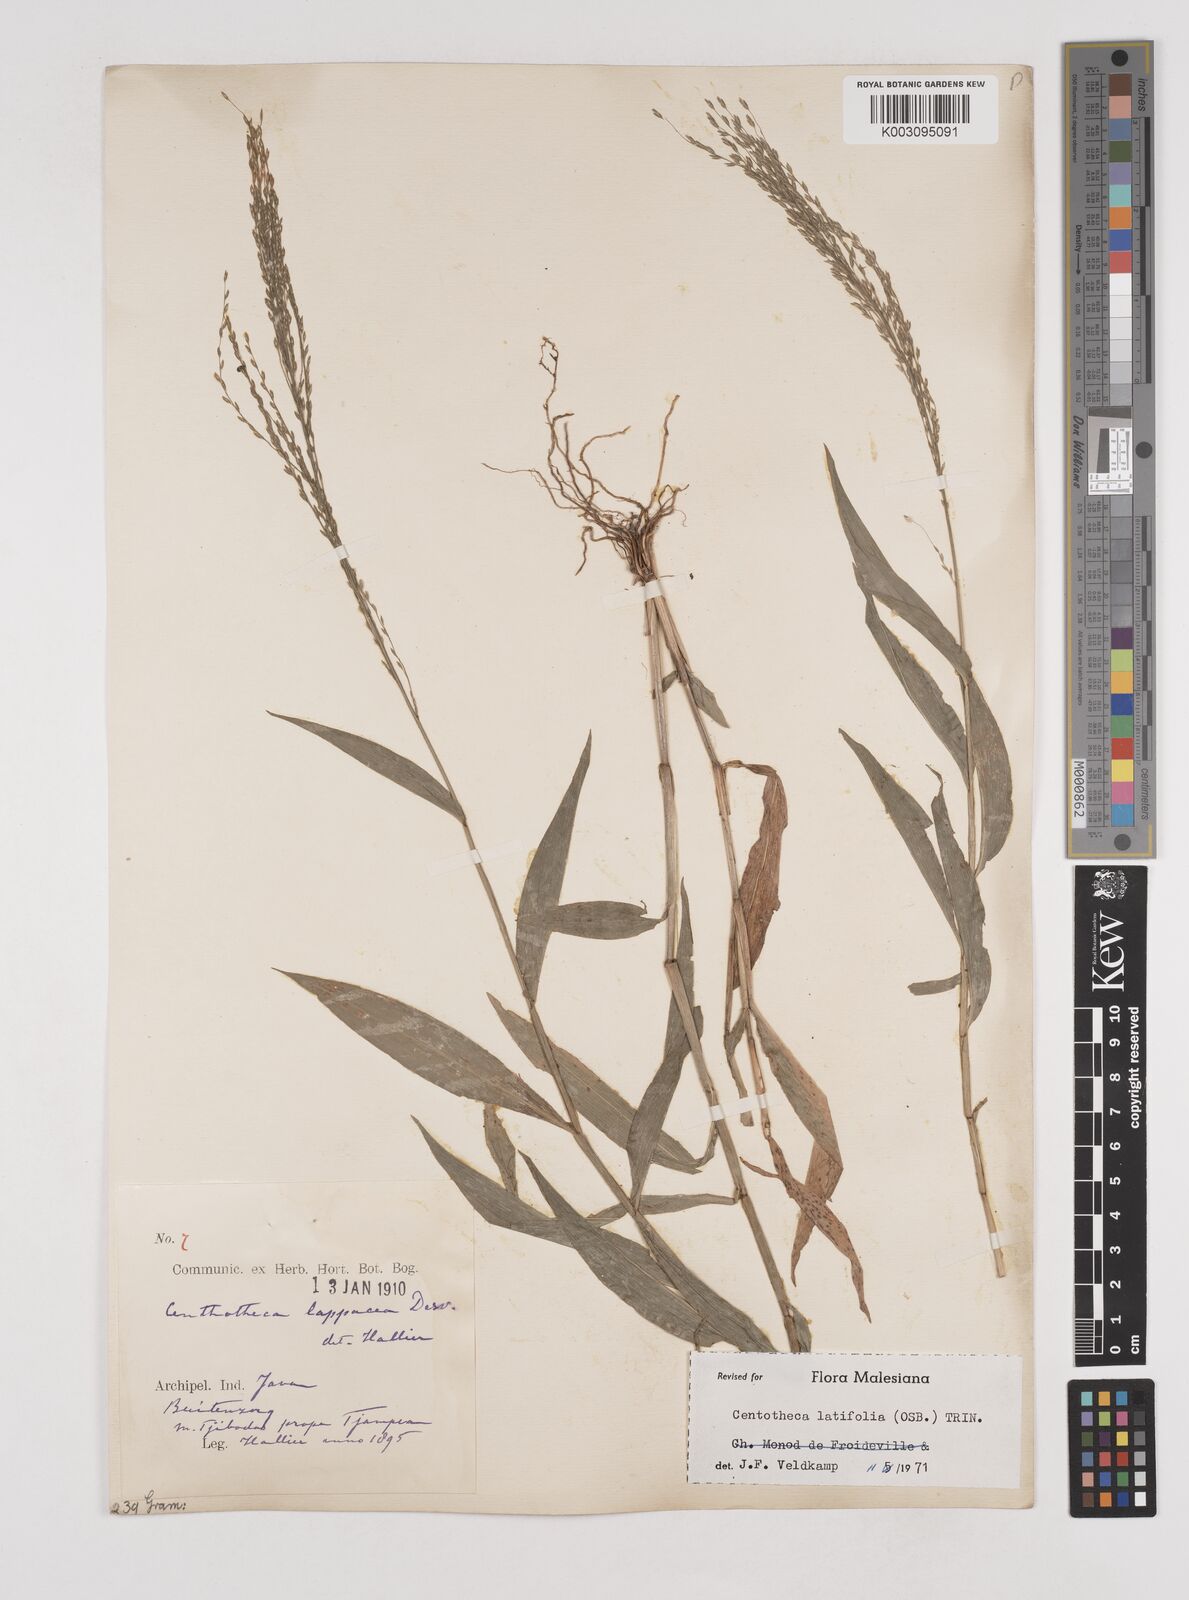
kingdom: Plantae
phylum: Tracheophyta
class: Liliopsida
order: Poales
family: Poaceae
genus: Centotheca
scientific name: Centotheca lappacea
